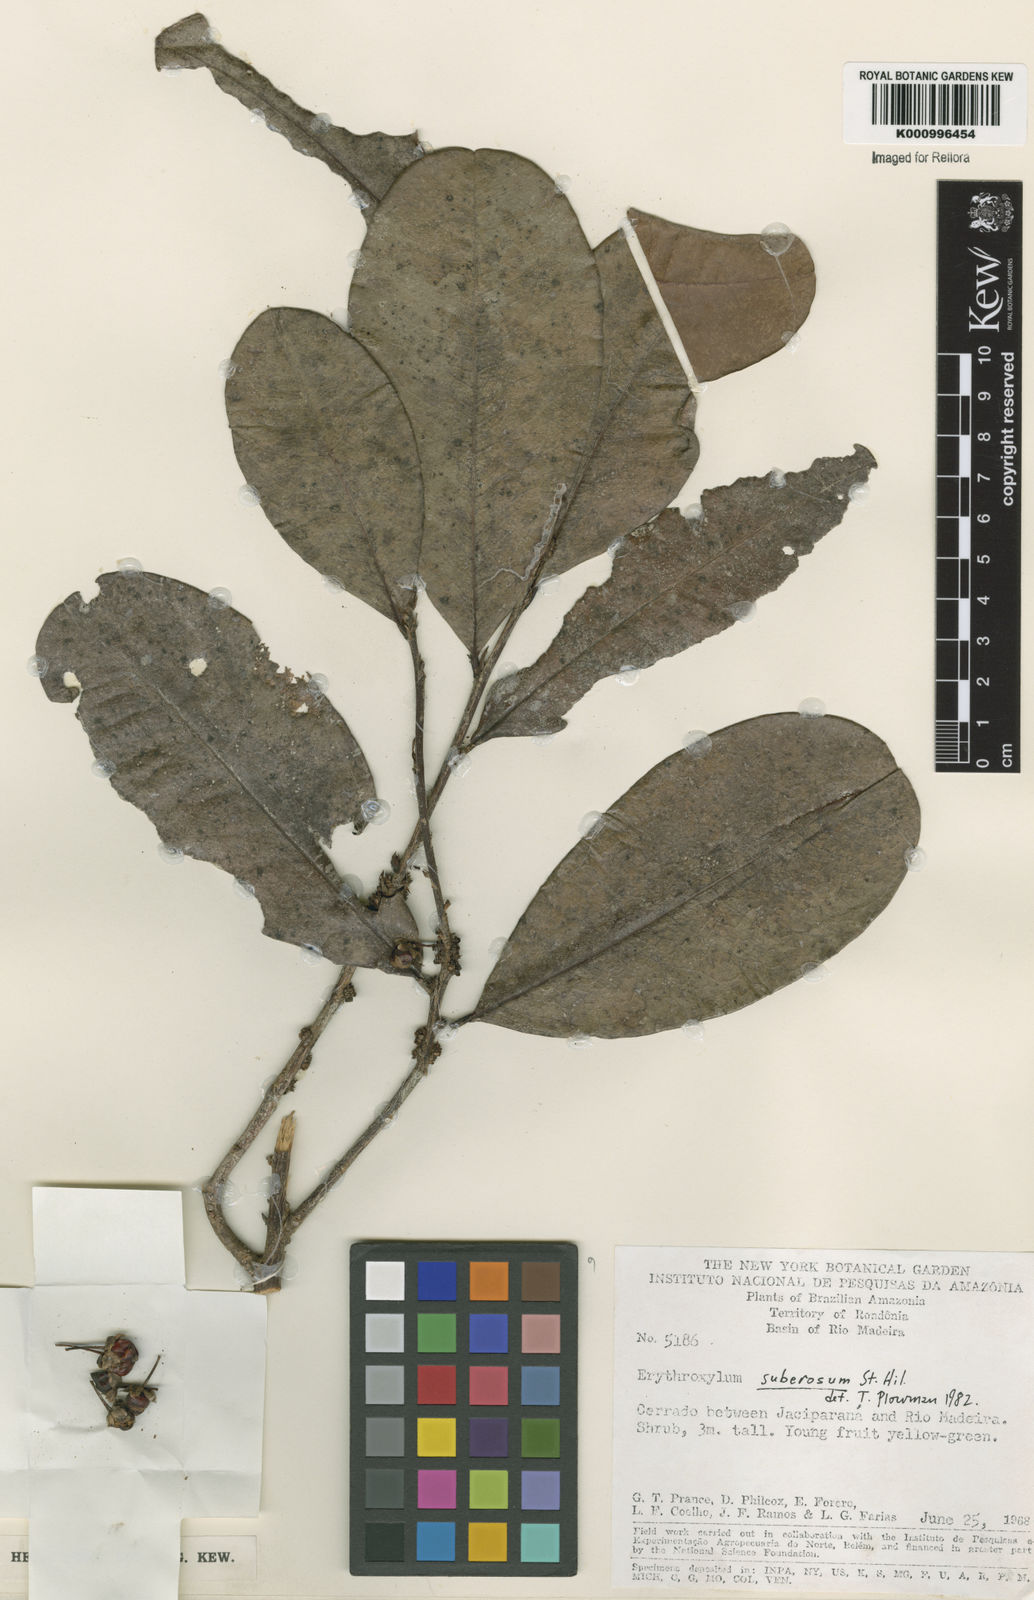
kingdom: Plantae
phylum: Tracheophyta
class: Magnoliopsida
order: Malpighiales
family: Erythroxylaceae
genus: Erythroxylum
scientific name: Erythroxylum suberosum
